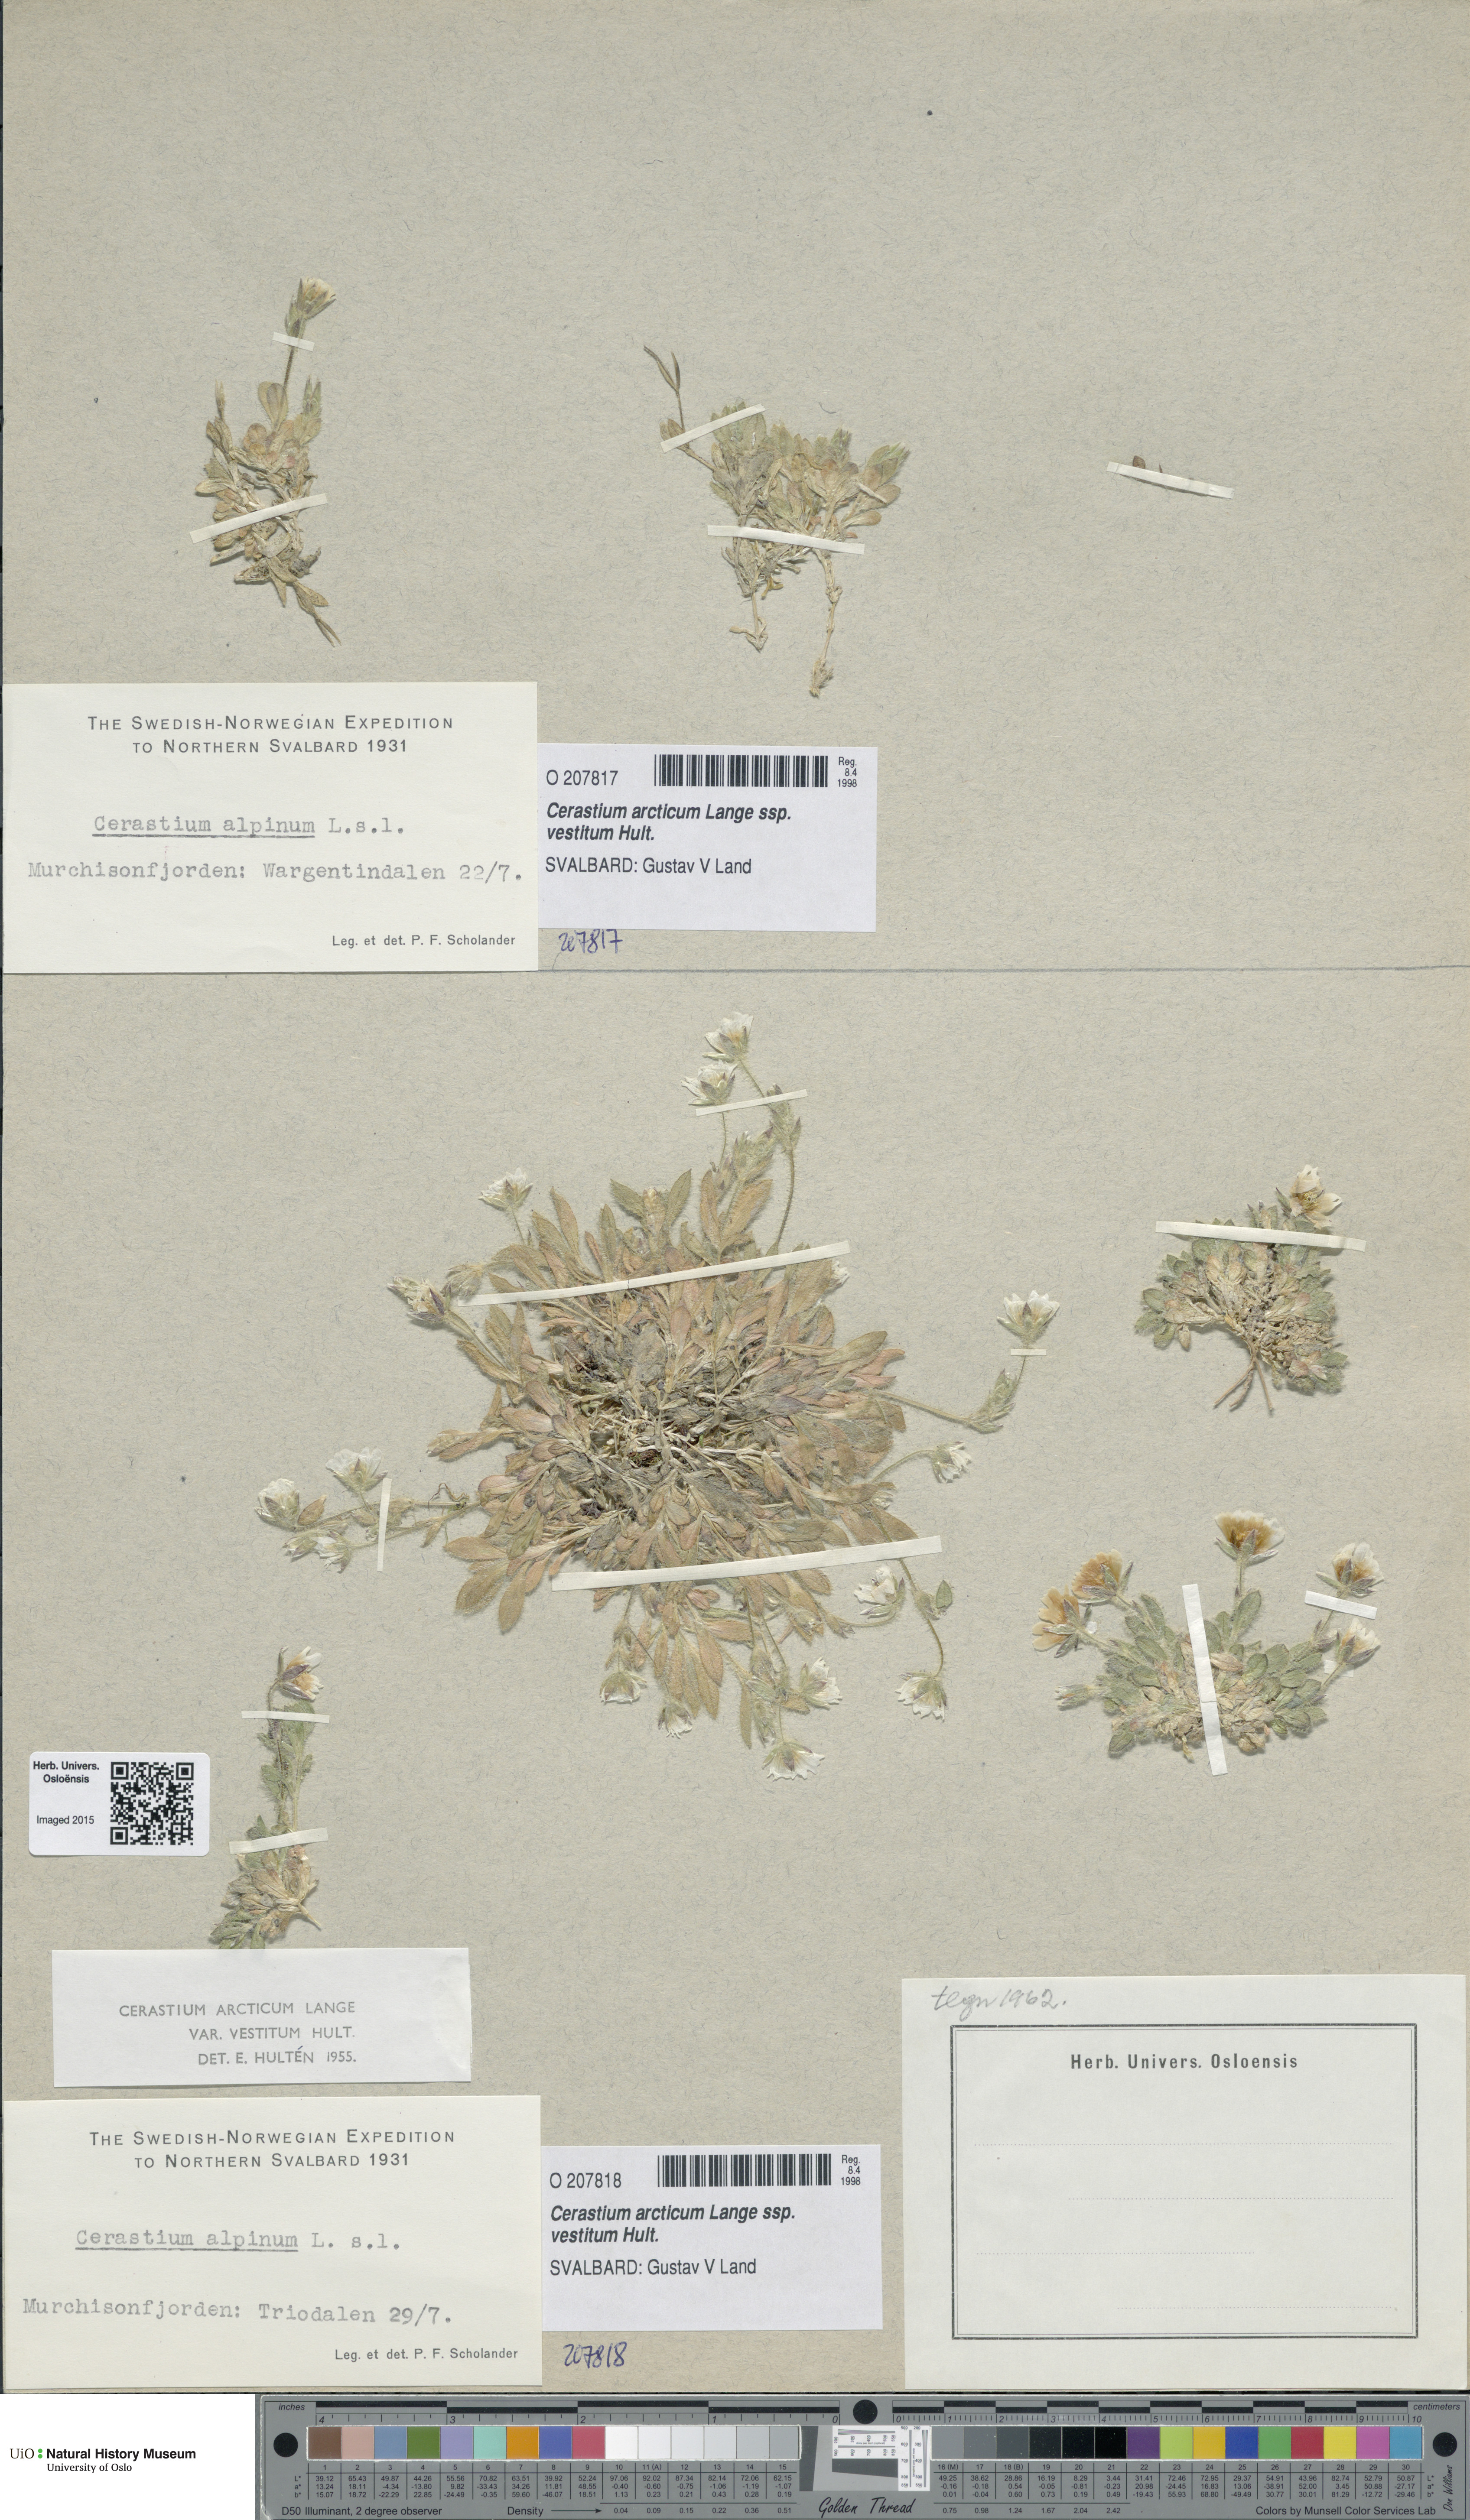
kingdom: Plantae
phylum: Tracheophyta
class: Magnoliopsida
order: Caryophyllales
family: Caryophyllaceae
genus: Cerastium
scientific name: Cerastium arcticum
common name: Arctic mouse-ear
